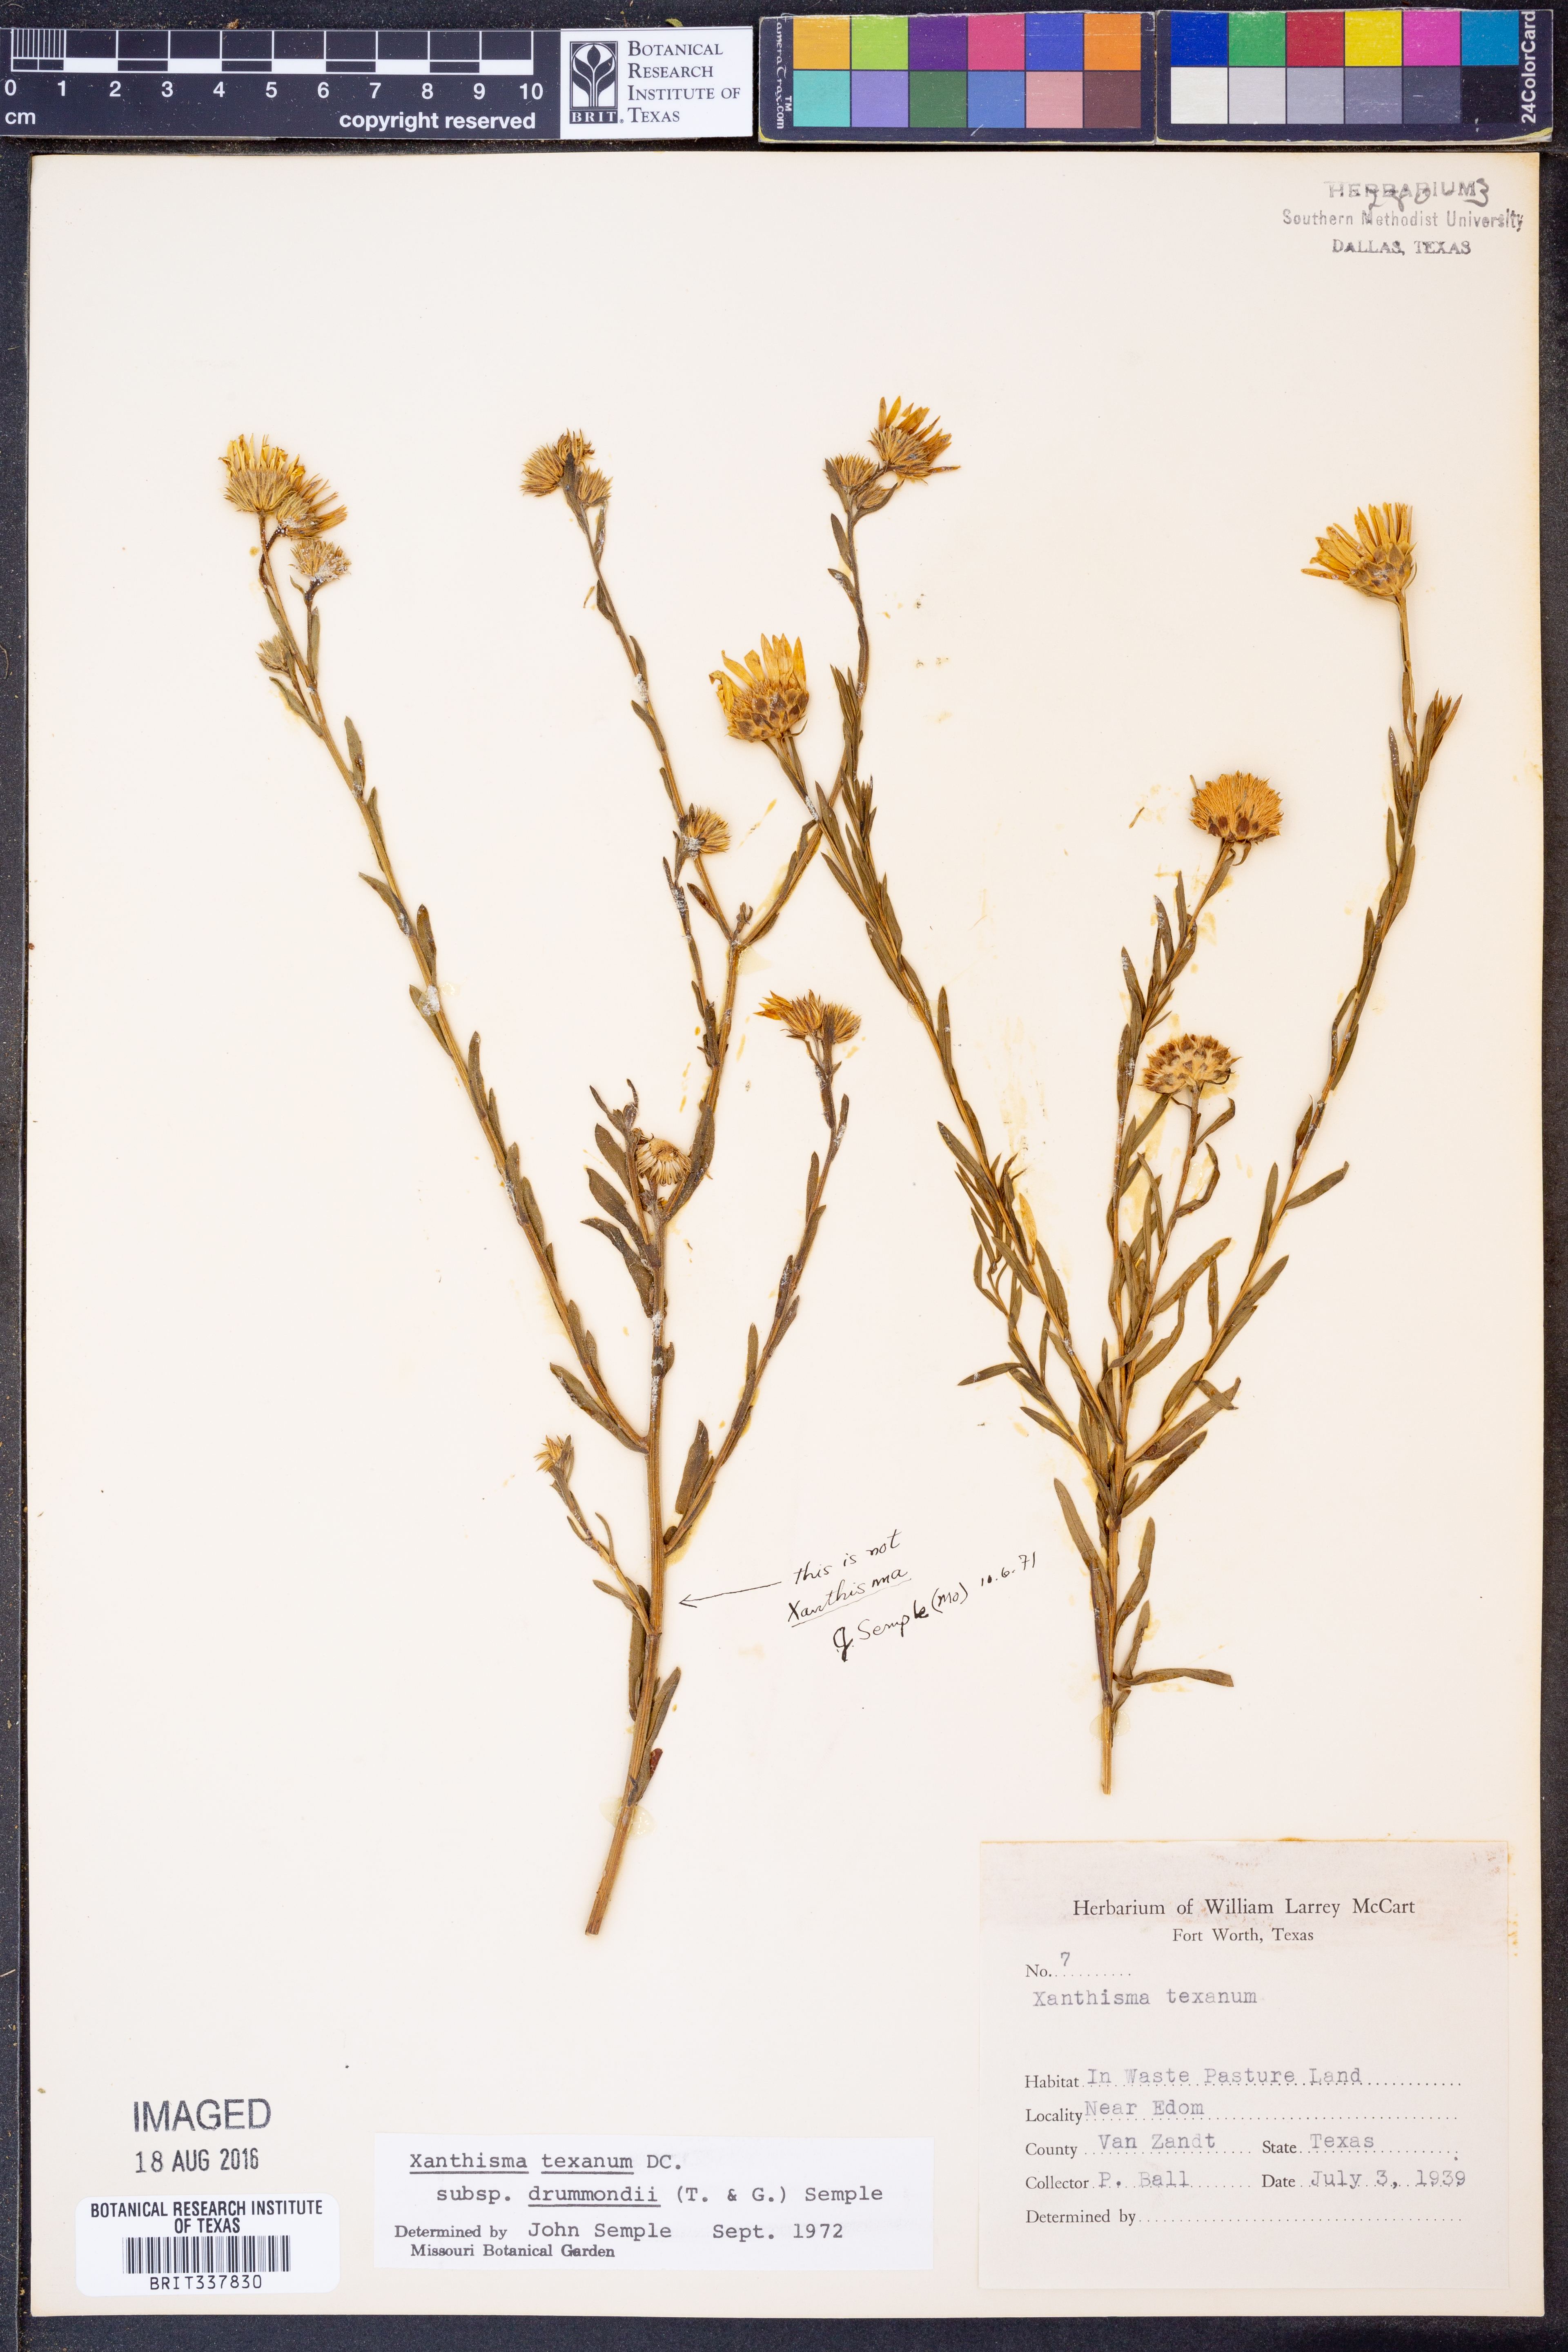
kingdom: Plantae
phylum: Tracheophyta
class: Magnoliopsida
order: Asterales
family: Asteraceae
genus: Xanthisma
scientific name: Xanthisma texanum
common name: Texas sleepy daisy
